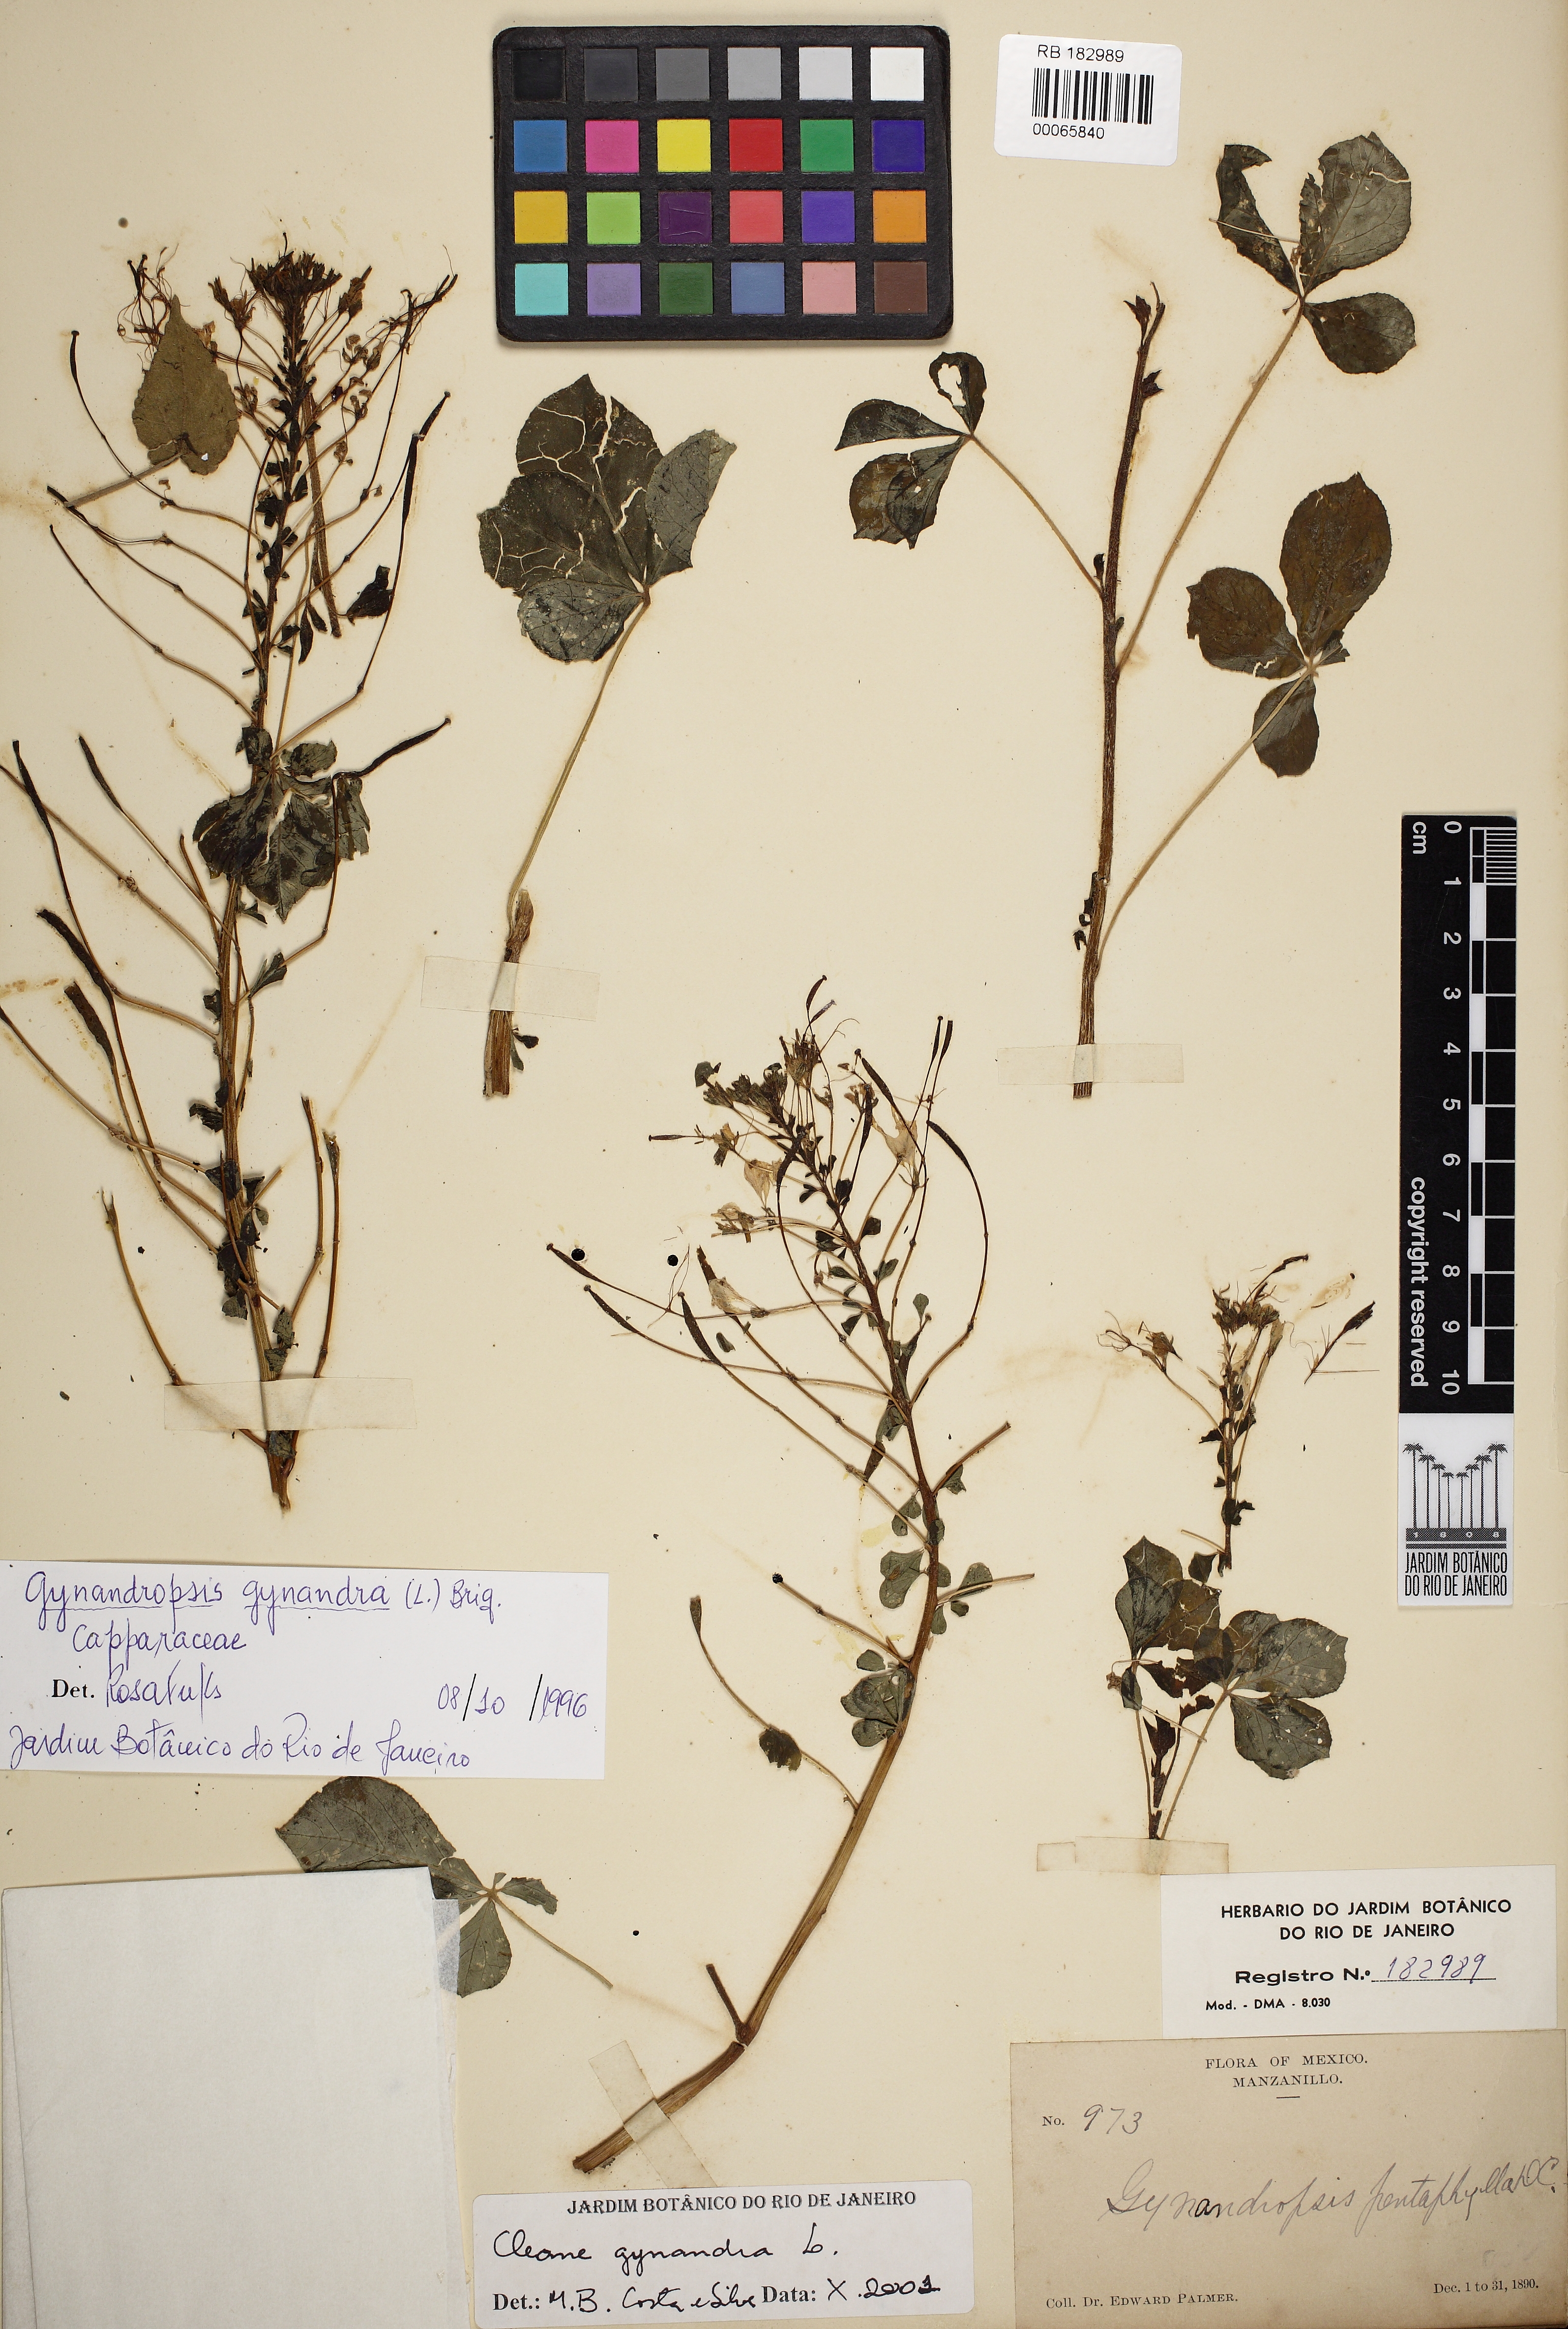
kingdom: Plantae
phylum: Tracheophyta
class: Magnoliopsida
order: Brassicales
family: Cleomaceae
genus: Gynandropsis
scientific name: Gynandropsis gynandra
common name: Spiderwisp
